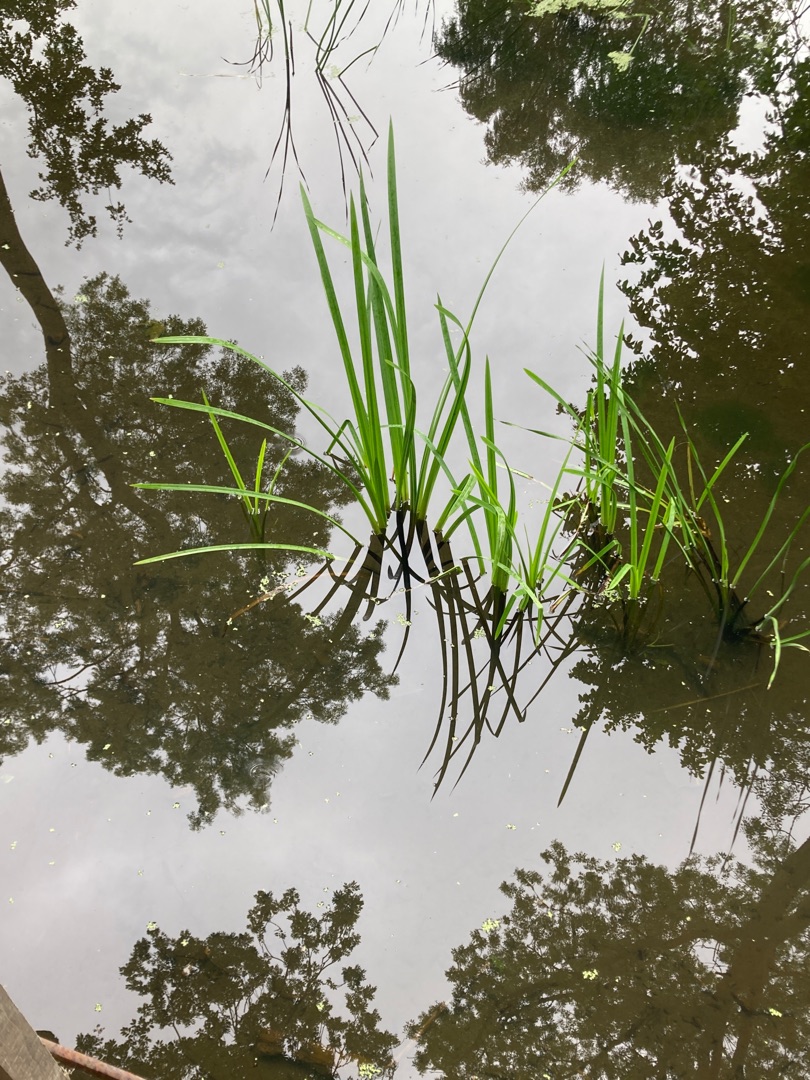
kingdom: Plantae
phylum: Tracheophyta
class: Liliopsida
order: Poales
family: Typhaceae
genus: Sparganium
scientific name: Sparganium erectum
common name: Grenet pindsvineknop
